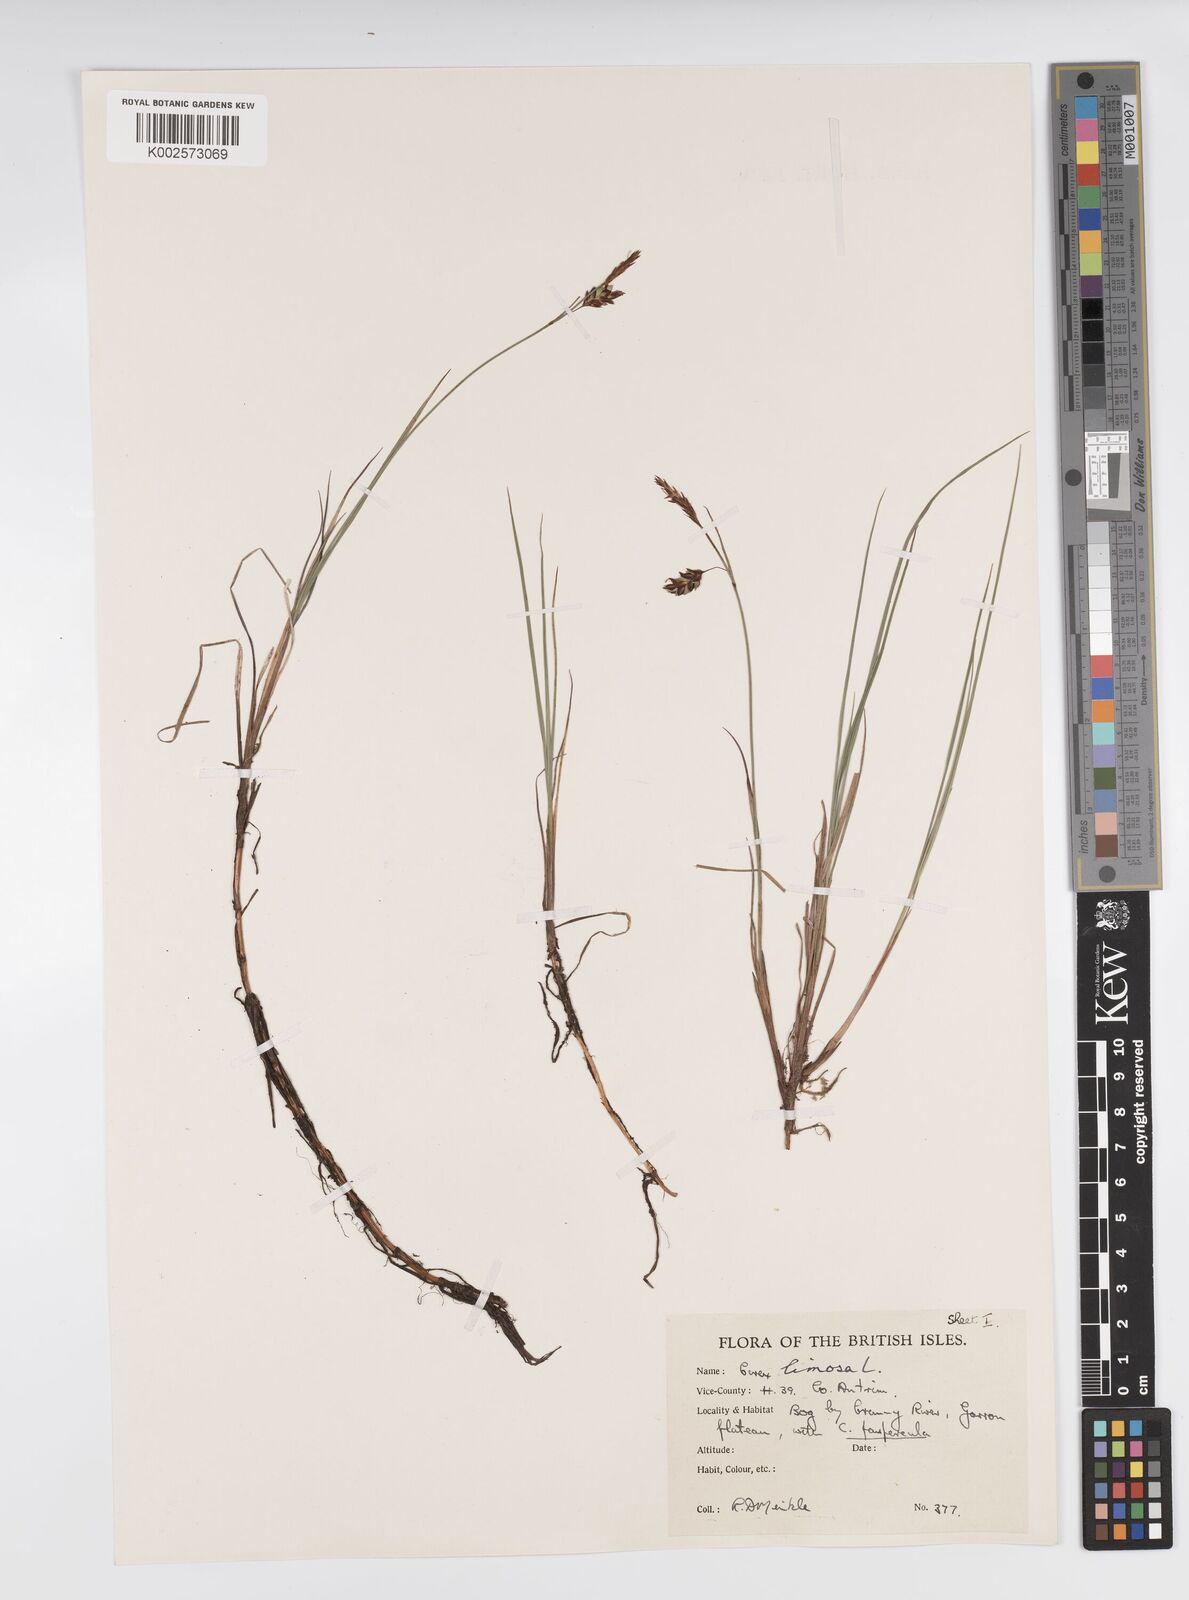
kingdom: Plantae
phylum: Tracheophyta
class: Liliopsida
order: Poales
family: Cyperaceae
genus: Carex
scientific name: Carex limosa
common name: Bog sedge
